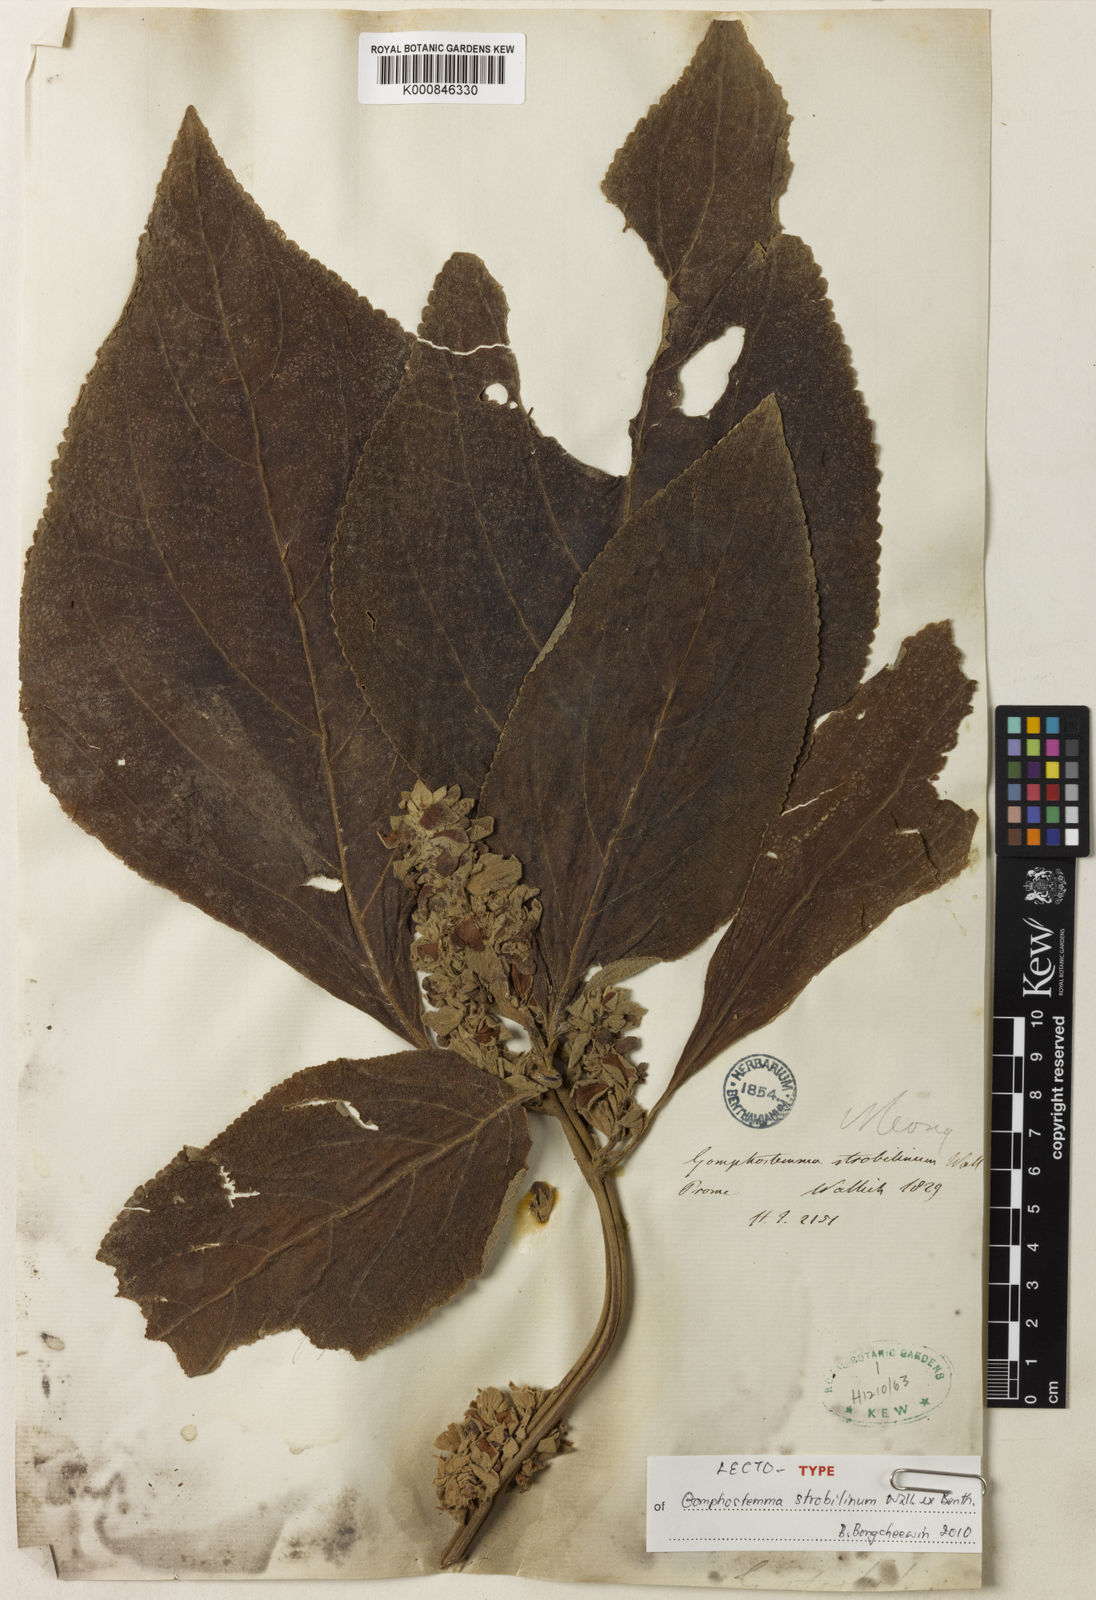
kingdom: Plantae
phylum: Tracheophyta
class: Magnoliopsida
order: Lamiales
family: Lamiaceae
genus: Gomphostemma
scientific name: Gomphostemma strobilinum
